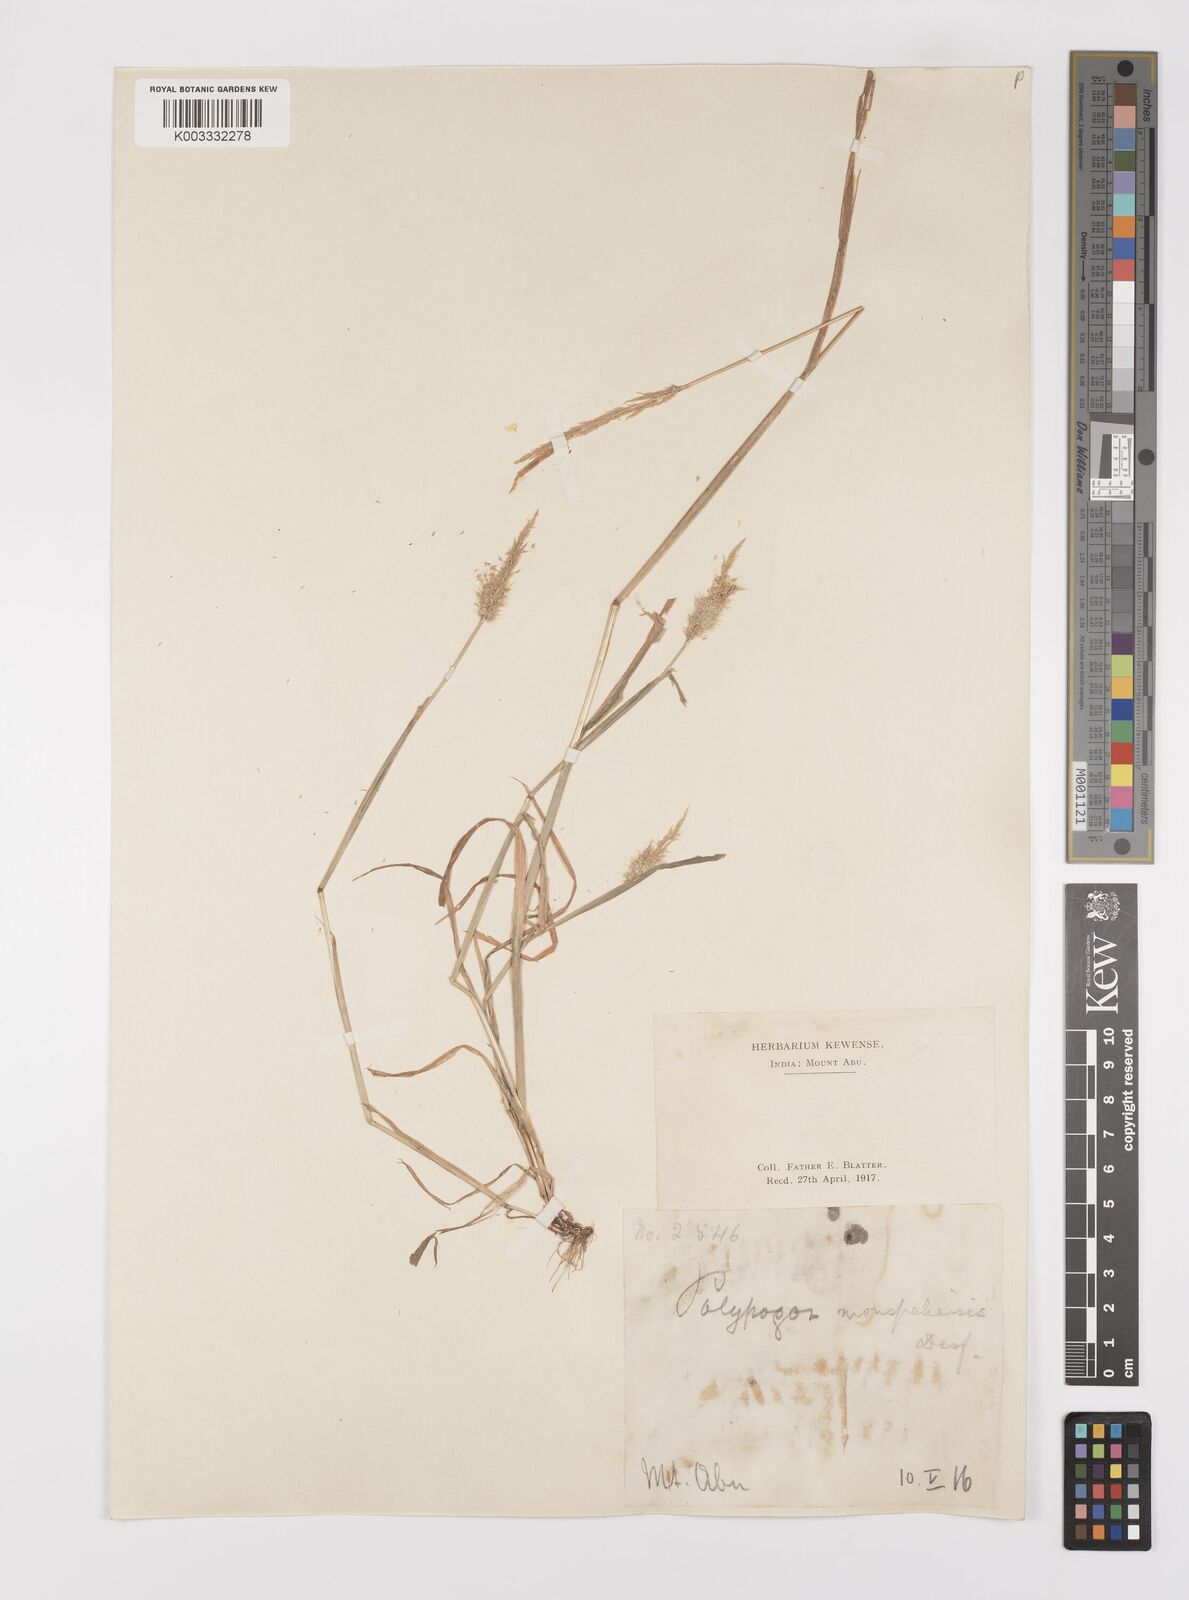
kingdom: Plantae
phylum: Tracheophyta
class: Liliopsida
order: Poales
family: Poaceae
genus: Polypogon
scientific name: Polypogon monspeliensis
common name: Annual rabbitsfoot grass
